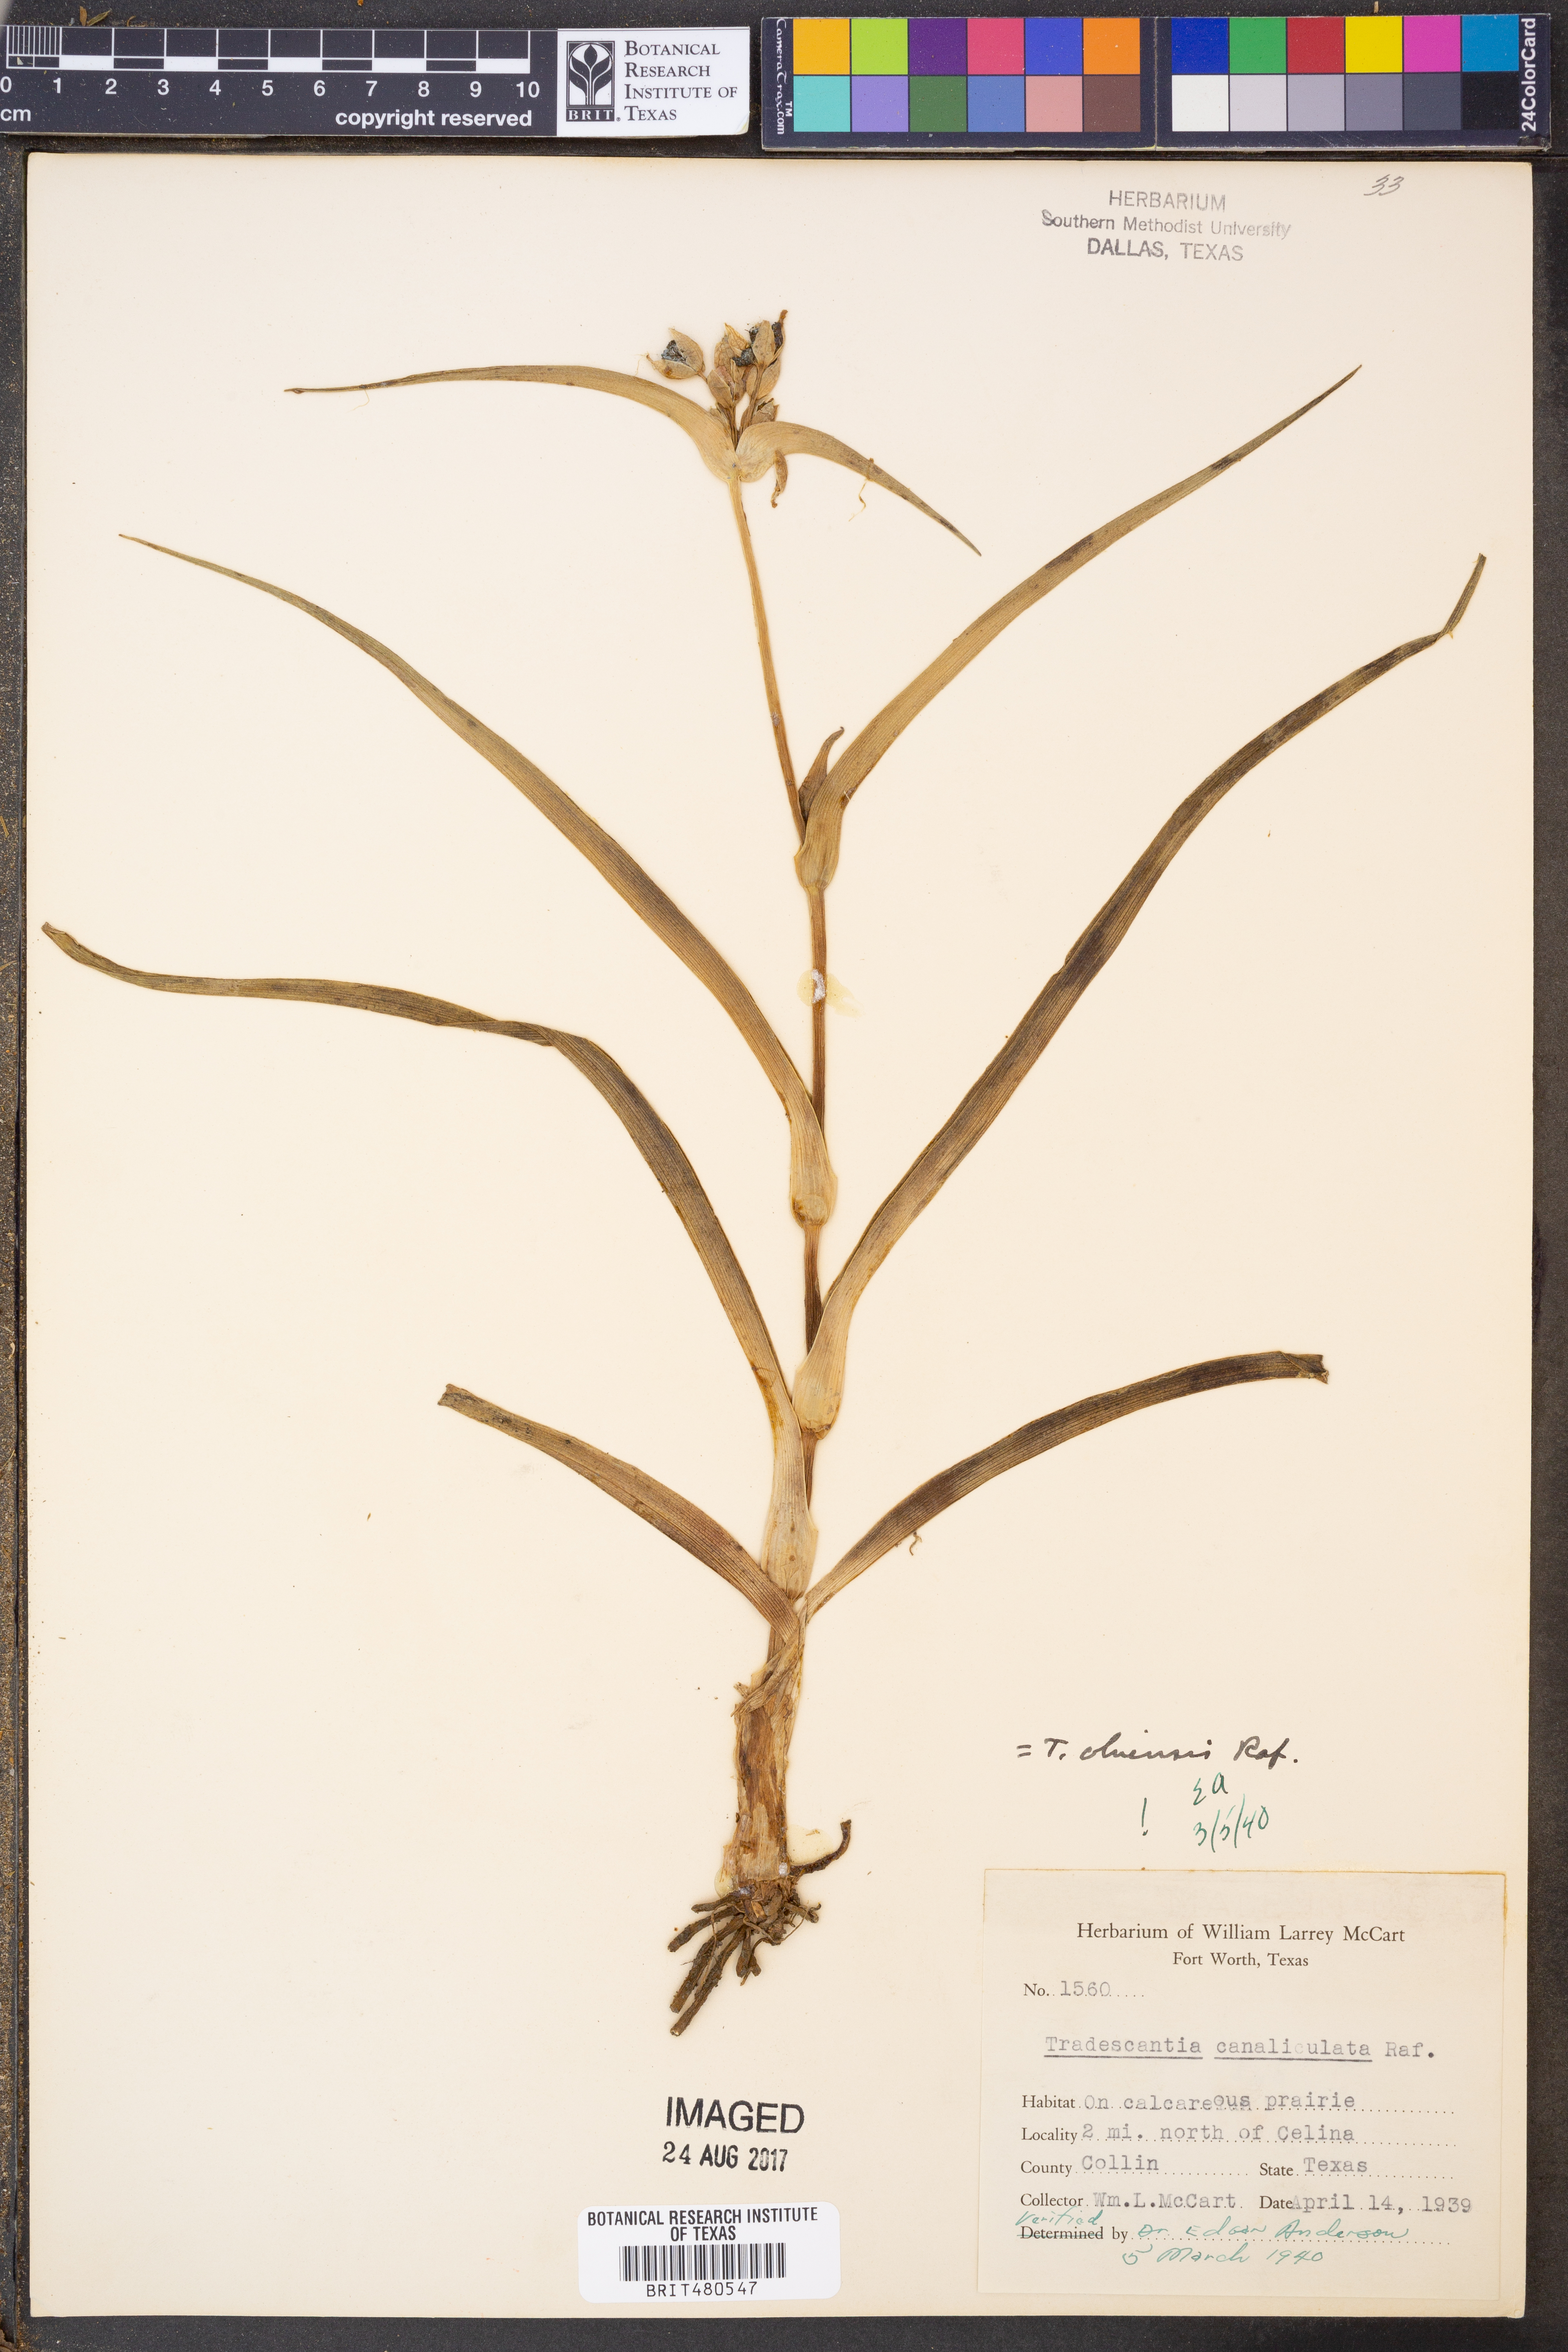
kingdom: Plantae
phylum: Tracheophyta
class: Liliopsida
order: Commelinales
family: Commelinaceae
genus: Tradescantia
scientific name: Tradescantia ohiensis
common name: Ohio spiderwort
